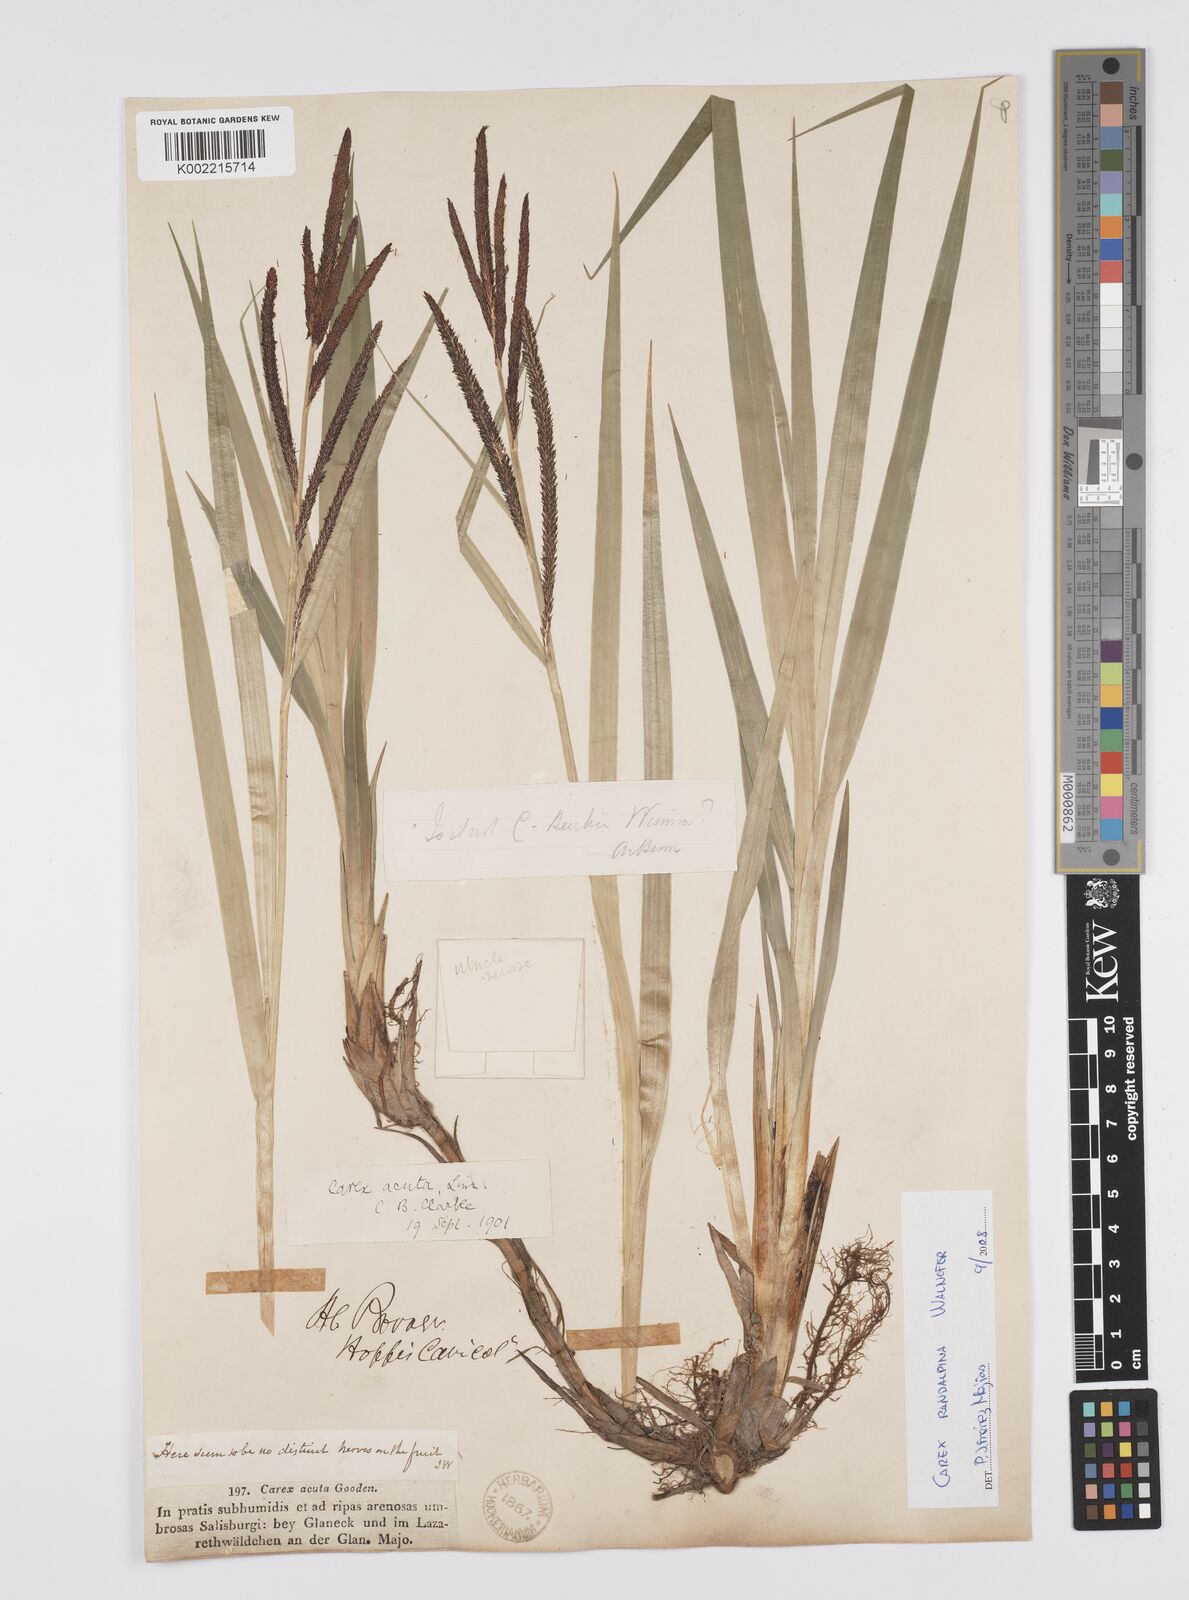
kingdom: Plantae
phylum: Tracheophyta
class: Liliopsida
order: Poales
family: Cyperaceae
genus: Carex
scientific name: Carex randalpina
